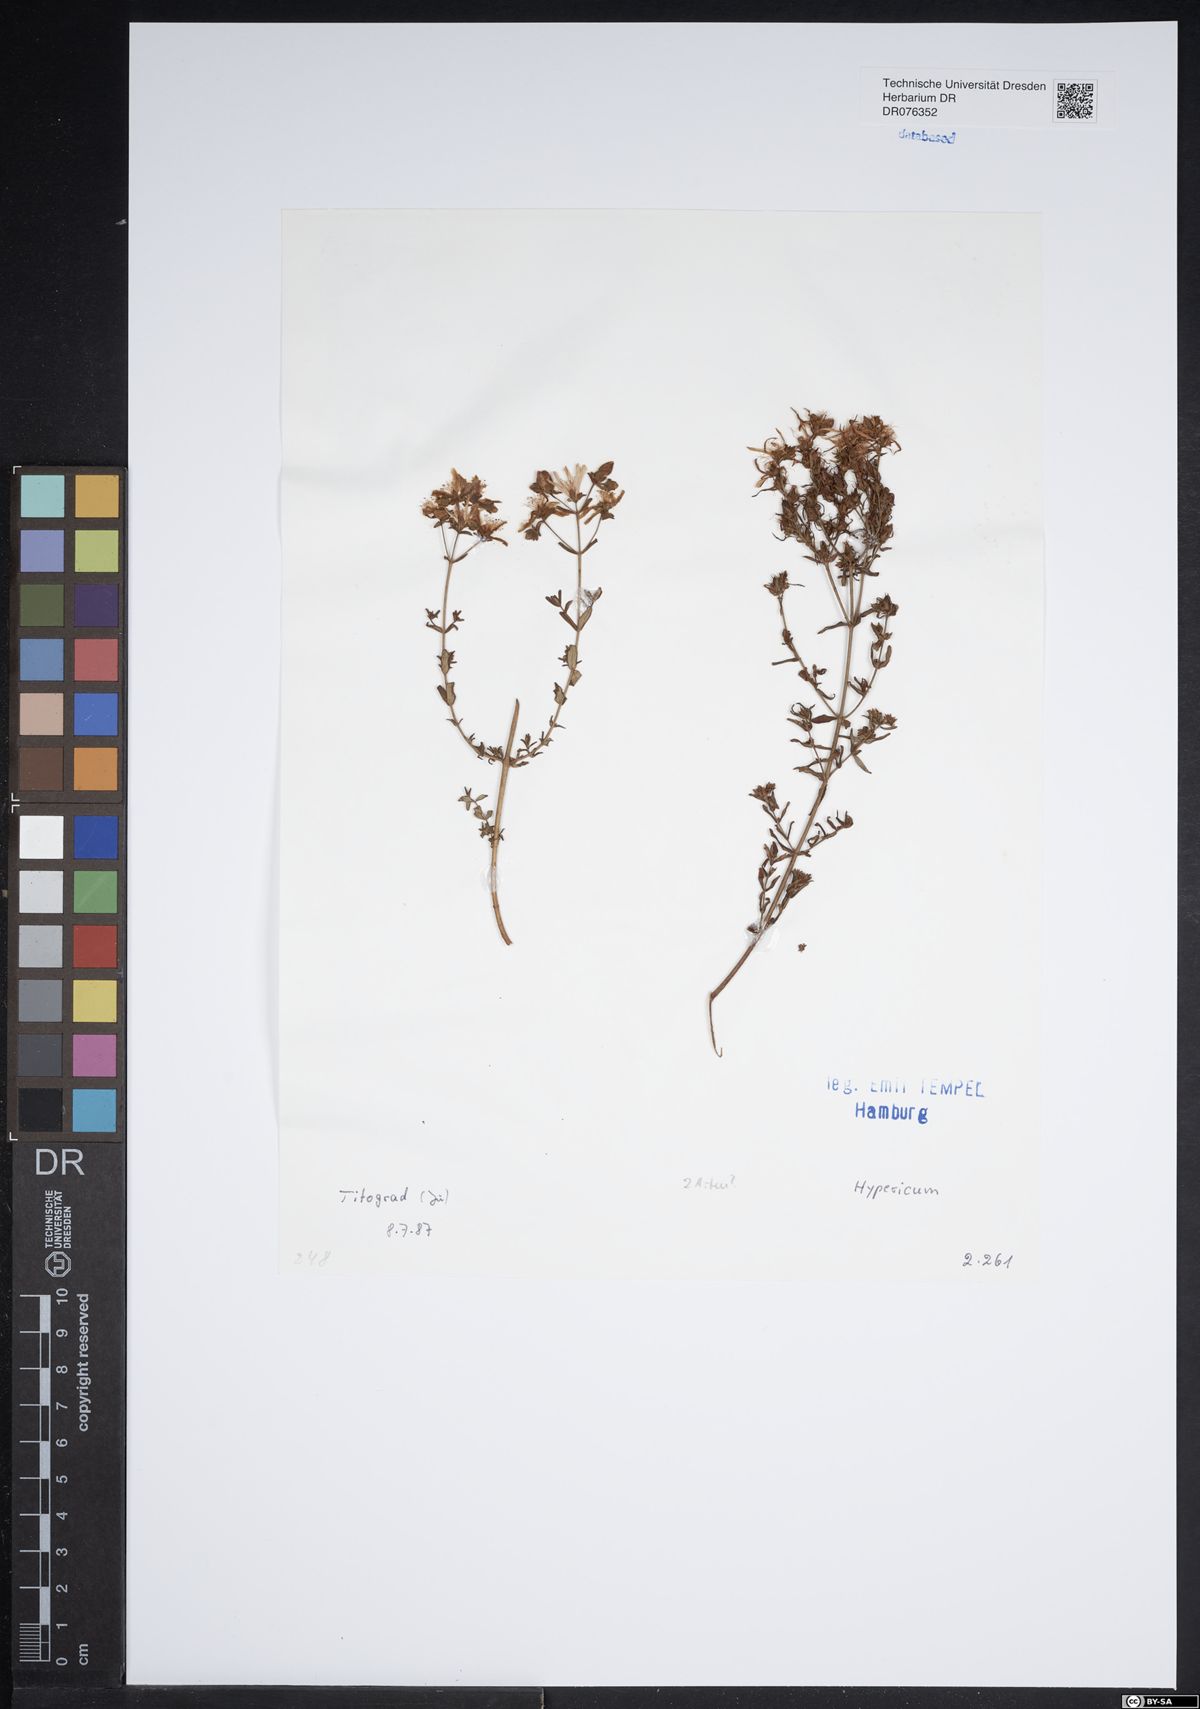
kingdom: Plantae
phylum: Tracheophyta
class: Magnoliopsida
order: Malpighiales
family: Hypericaceae
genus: Hypericum
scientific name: Hypericum
